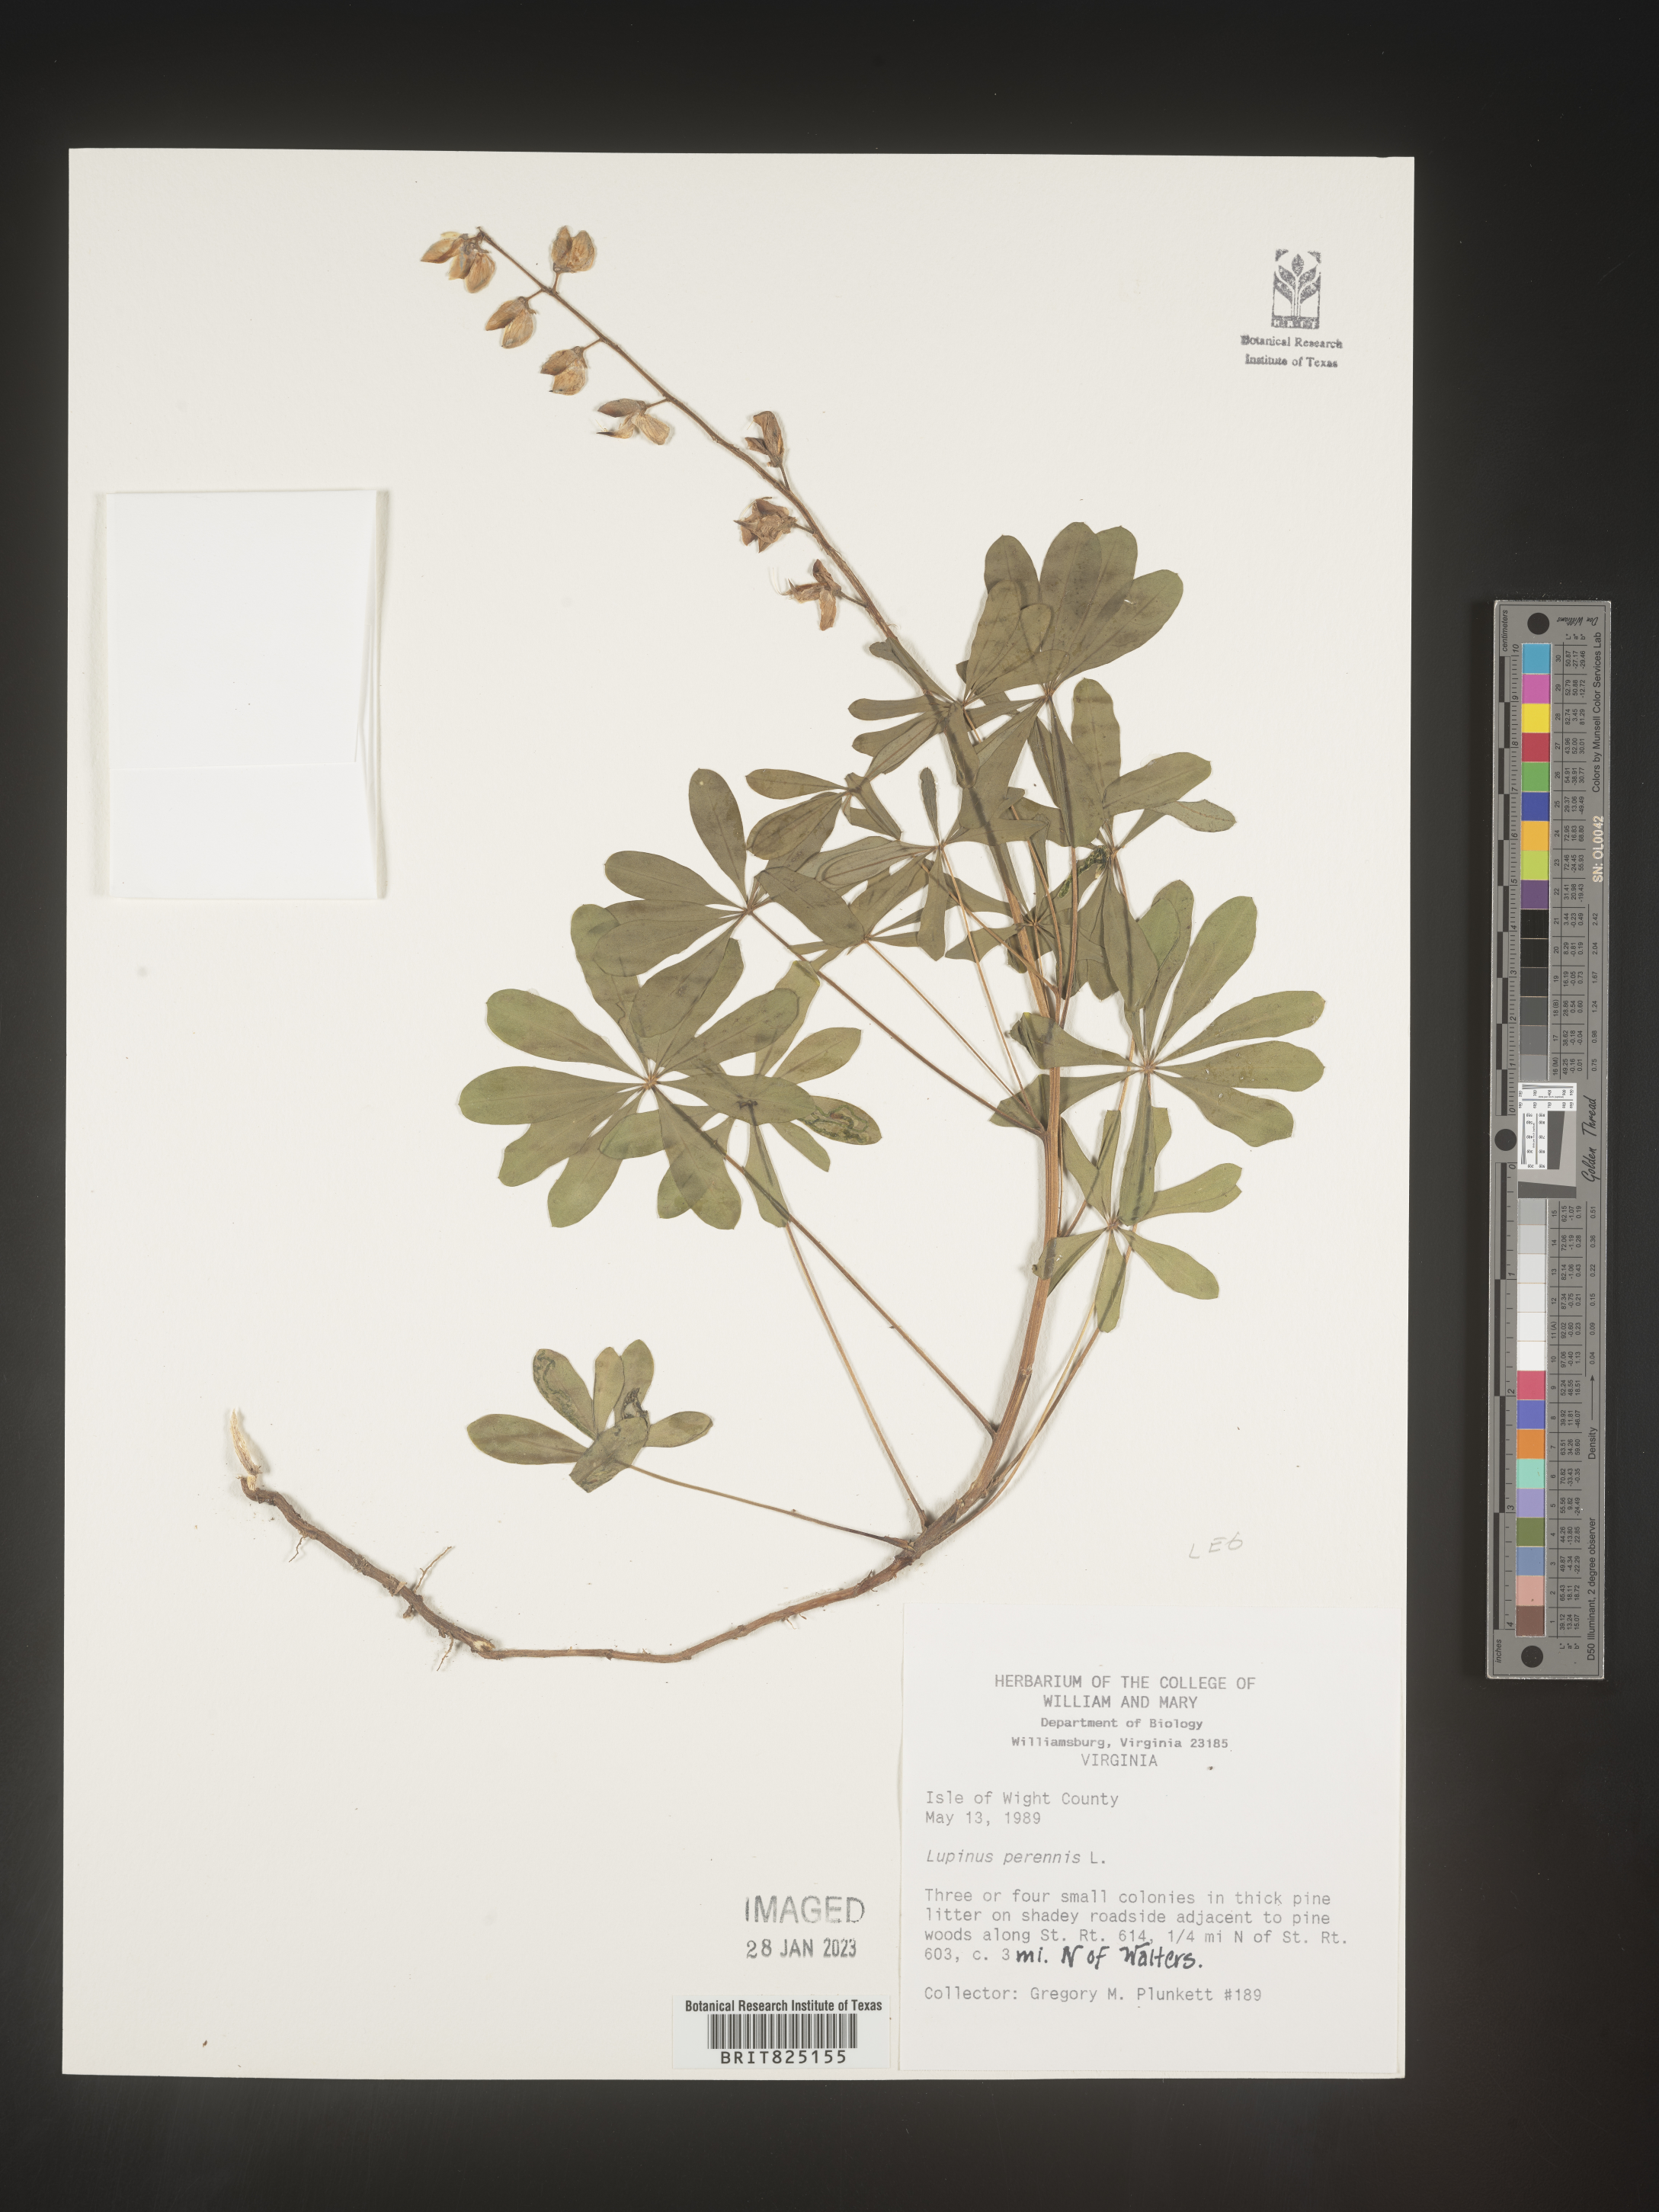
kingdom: Plantae
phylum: Tracheophyta
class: Magnoliopsida
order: Fabales
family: Fabaceae
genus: Lupinus
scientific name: Lupinus perennis
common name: Sundial lupine
